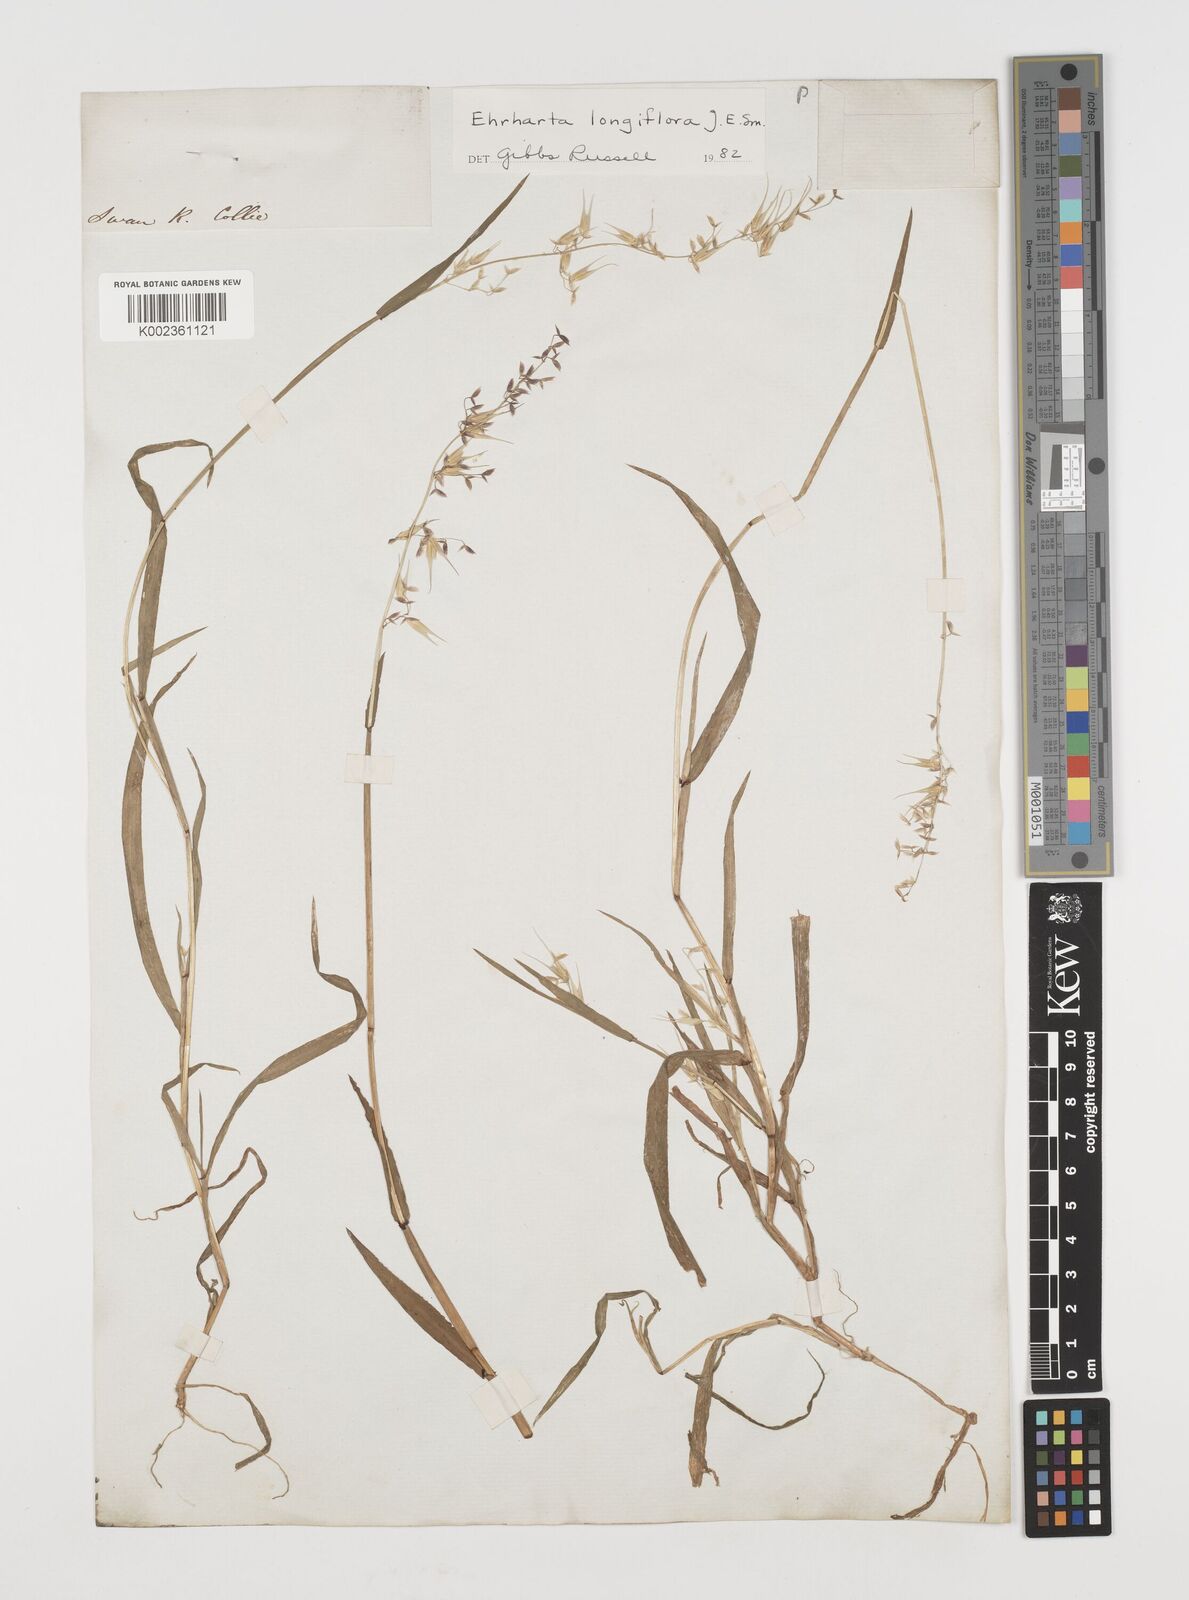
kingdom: Plantae
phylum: Tracheophyta
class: Liliopsida
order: Poales
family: Poaceae
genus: Ehrharta
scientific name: Ehrharta longiflora
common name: Longflowered veldtgrass
